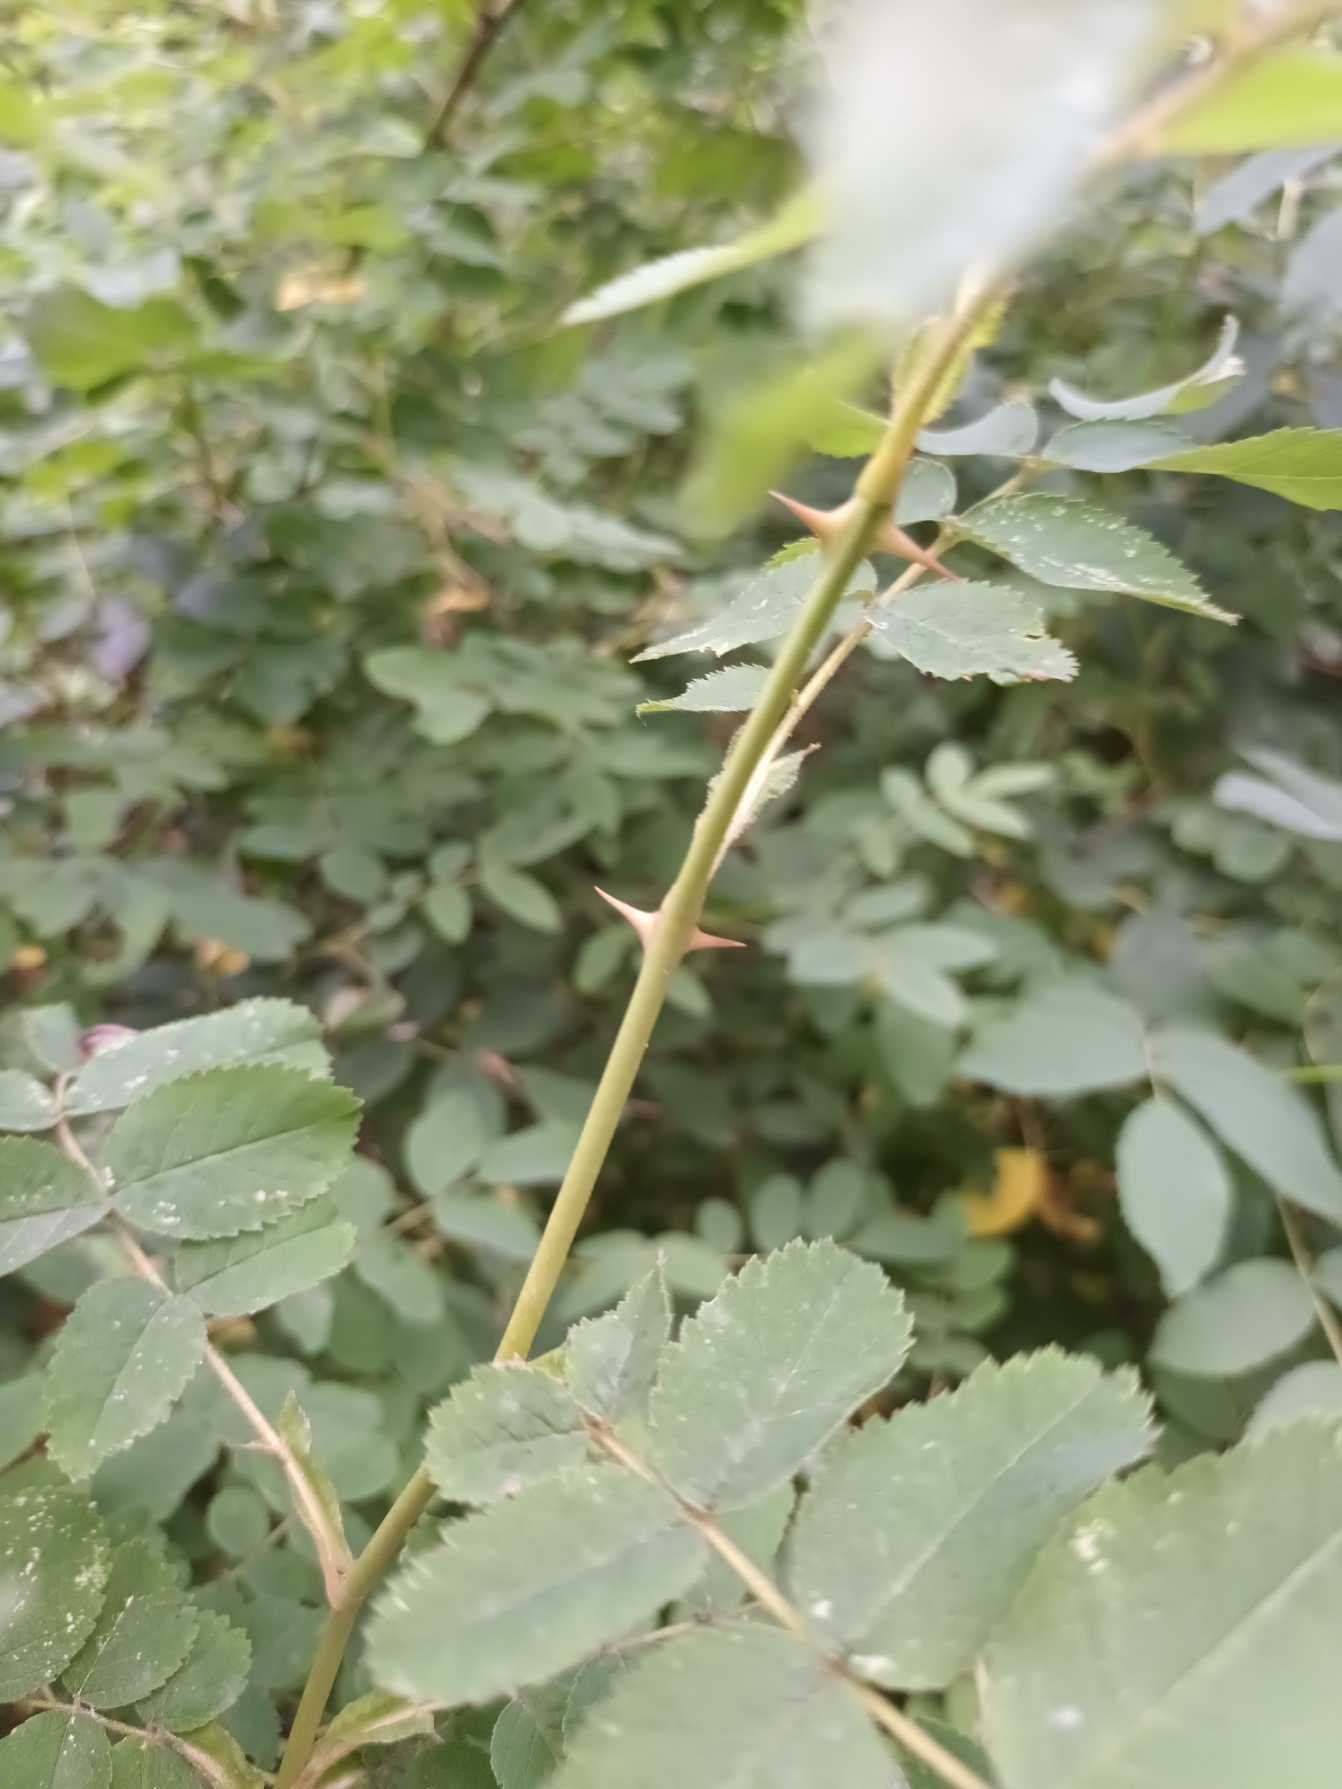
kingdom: Plantae
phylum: Tracheophyta
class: Magnoliopsida
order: Rosales
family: Rosaceae
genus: Rosa
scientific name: Rosa mollis
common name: Blød filt-rose
